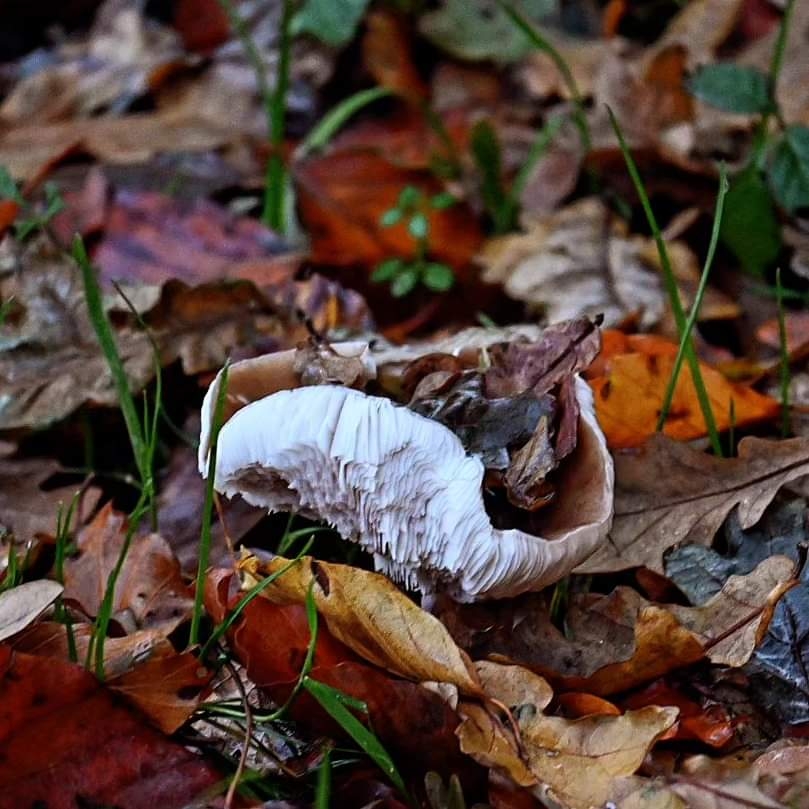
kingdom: Fungi
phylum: Basidiomycota
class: Agaricomycetes
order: Agaricales
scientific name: Agaricales
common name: champignonordenen
